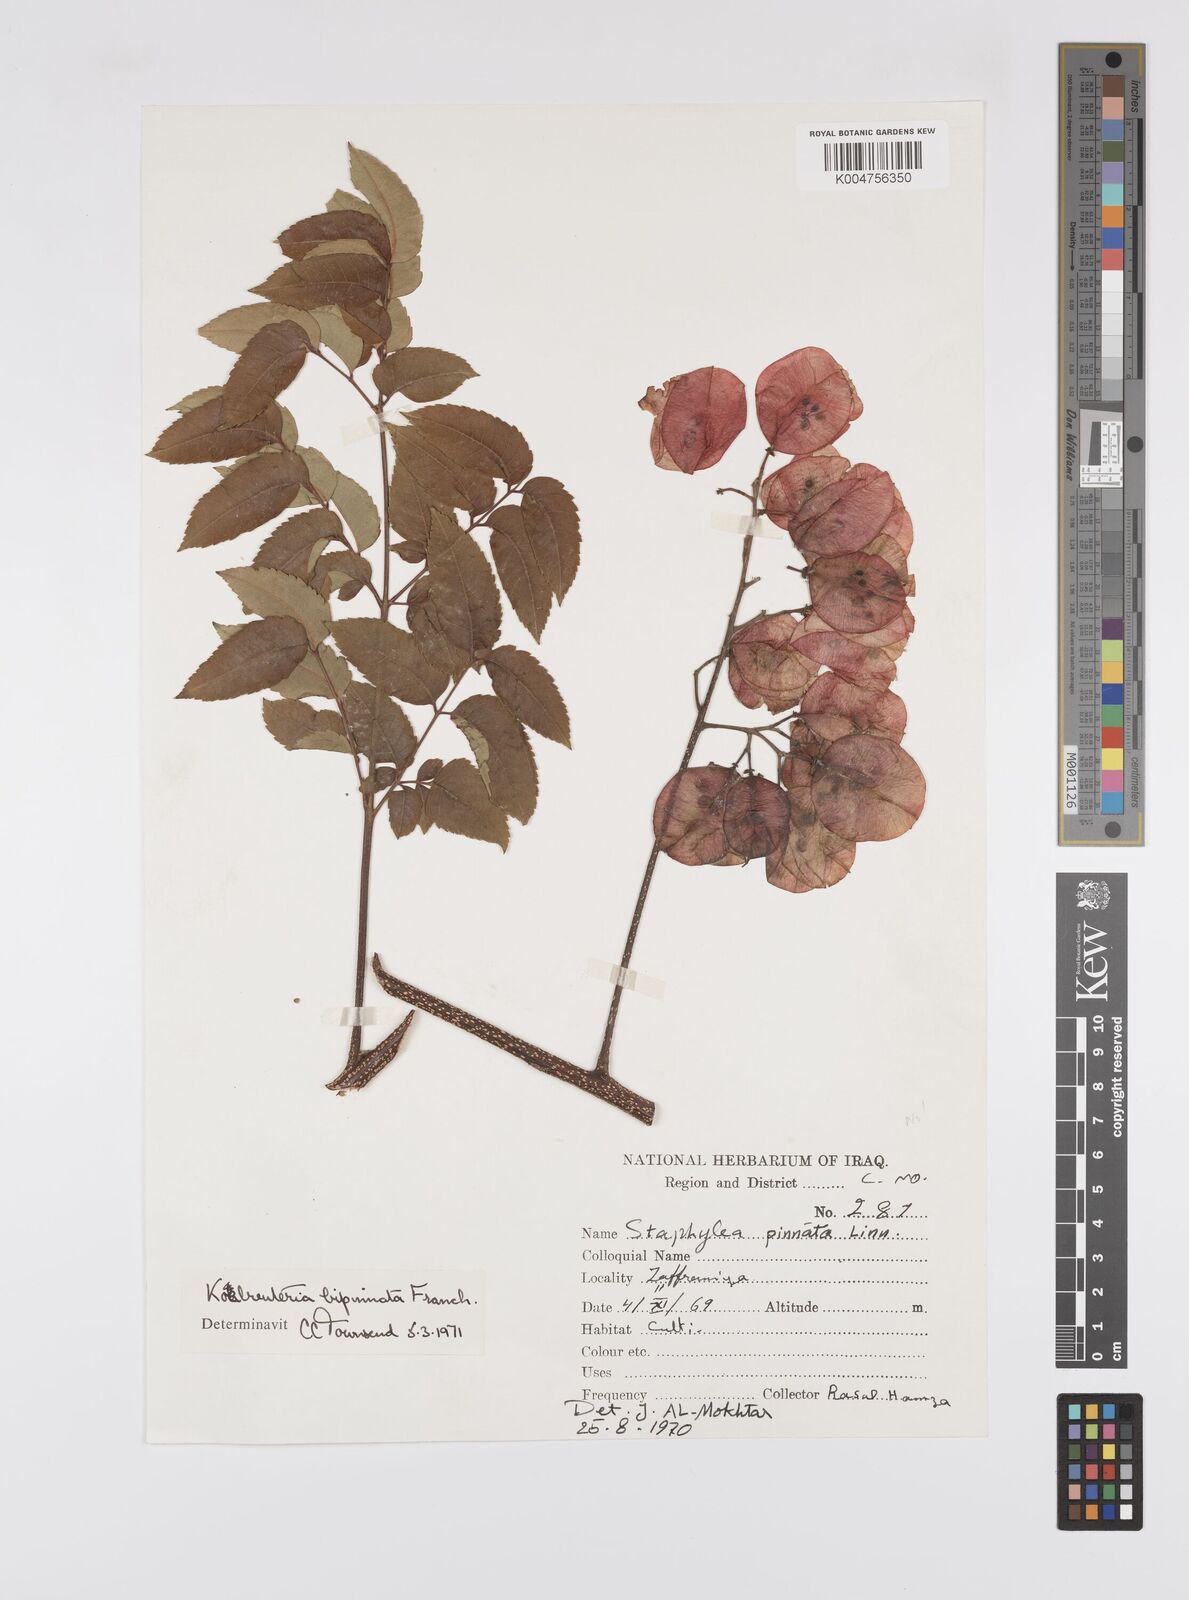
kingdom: Plantae
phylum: Tracheophyta
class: Magnoliopsida
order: Crossosomatales
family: Staphyleaceae
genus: Staphylea
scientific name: Staphylea pinnata
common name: Bladdernut
